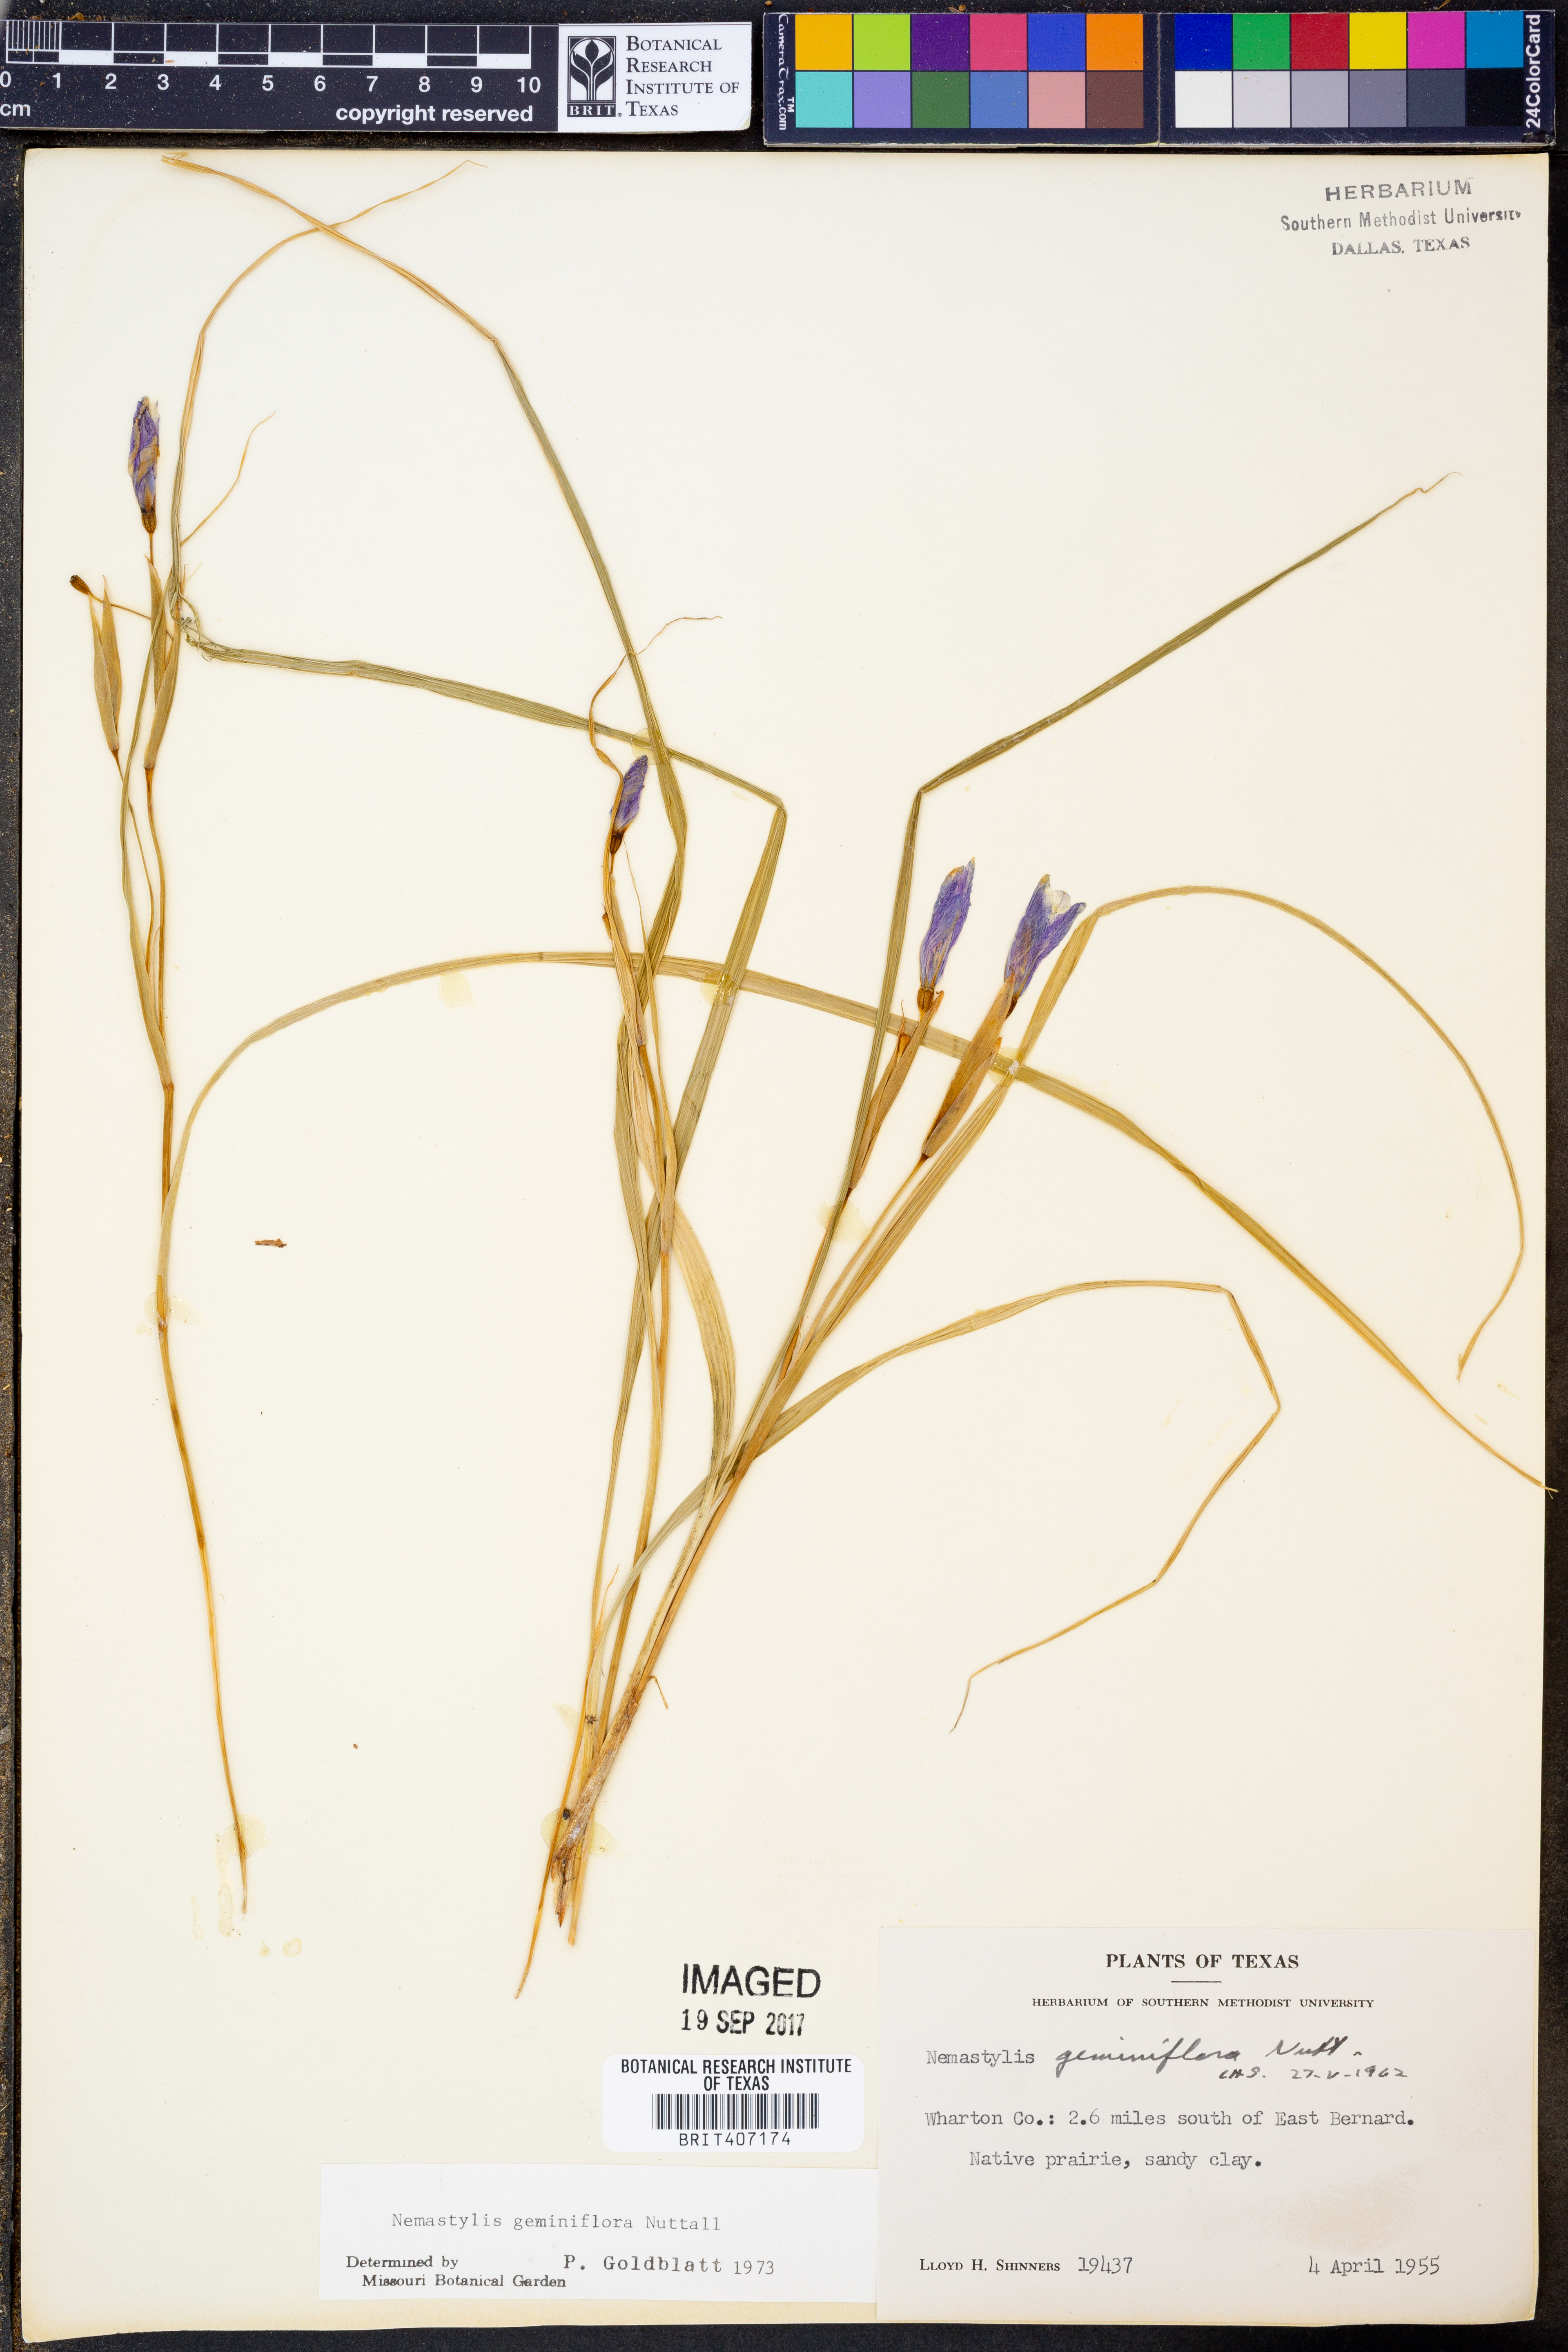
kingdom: Plantae
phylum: Tracheophyta
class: Liliopsida
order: Asparagales
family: Iridaceae
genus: Nemastylis
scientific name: Nemastylis geminiflora
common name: Prairie celestial
